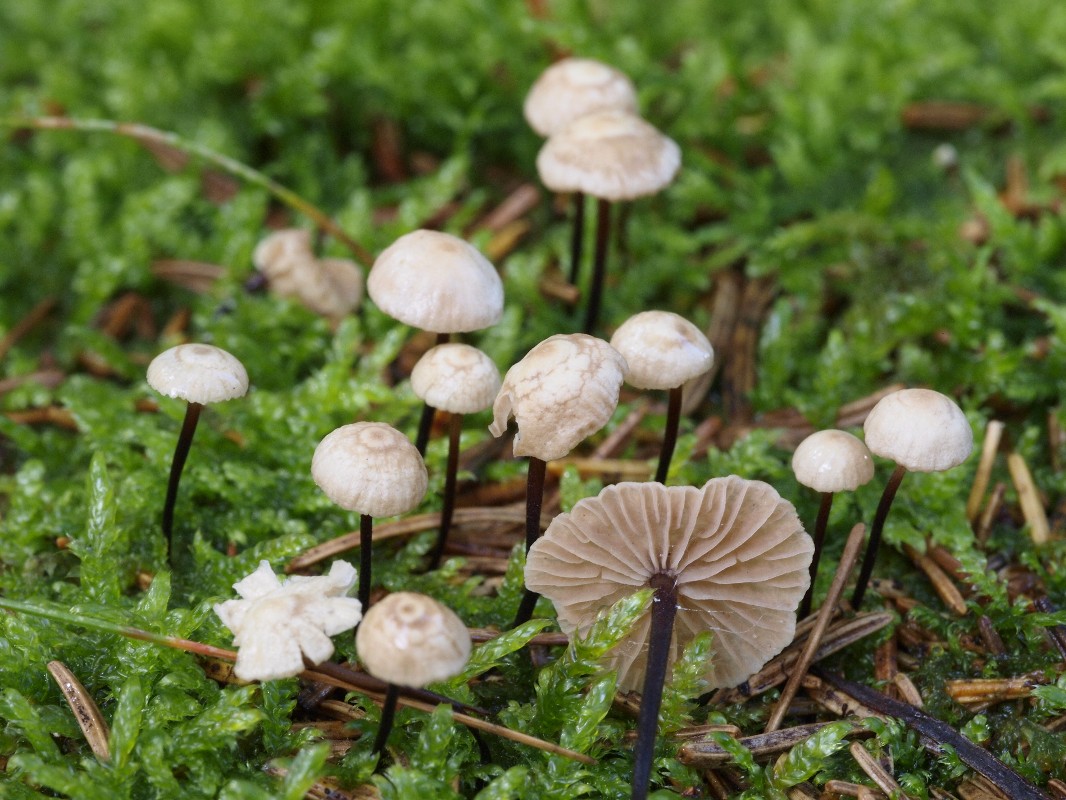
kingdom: Fungi
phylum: Basidiomycota
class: Agaricomycetes
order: Agaricales
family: Omphalotaceae
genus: Paragymnopus
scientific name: Paragymnopus perforans
